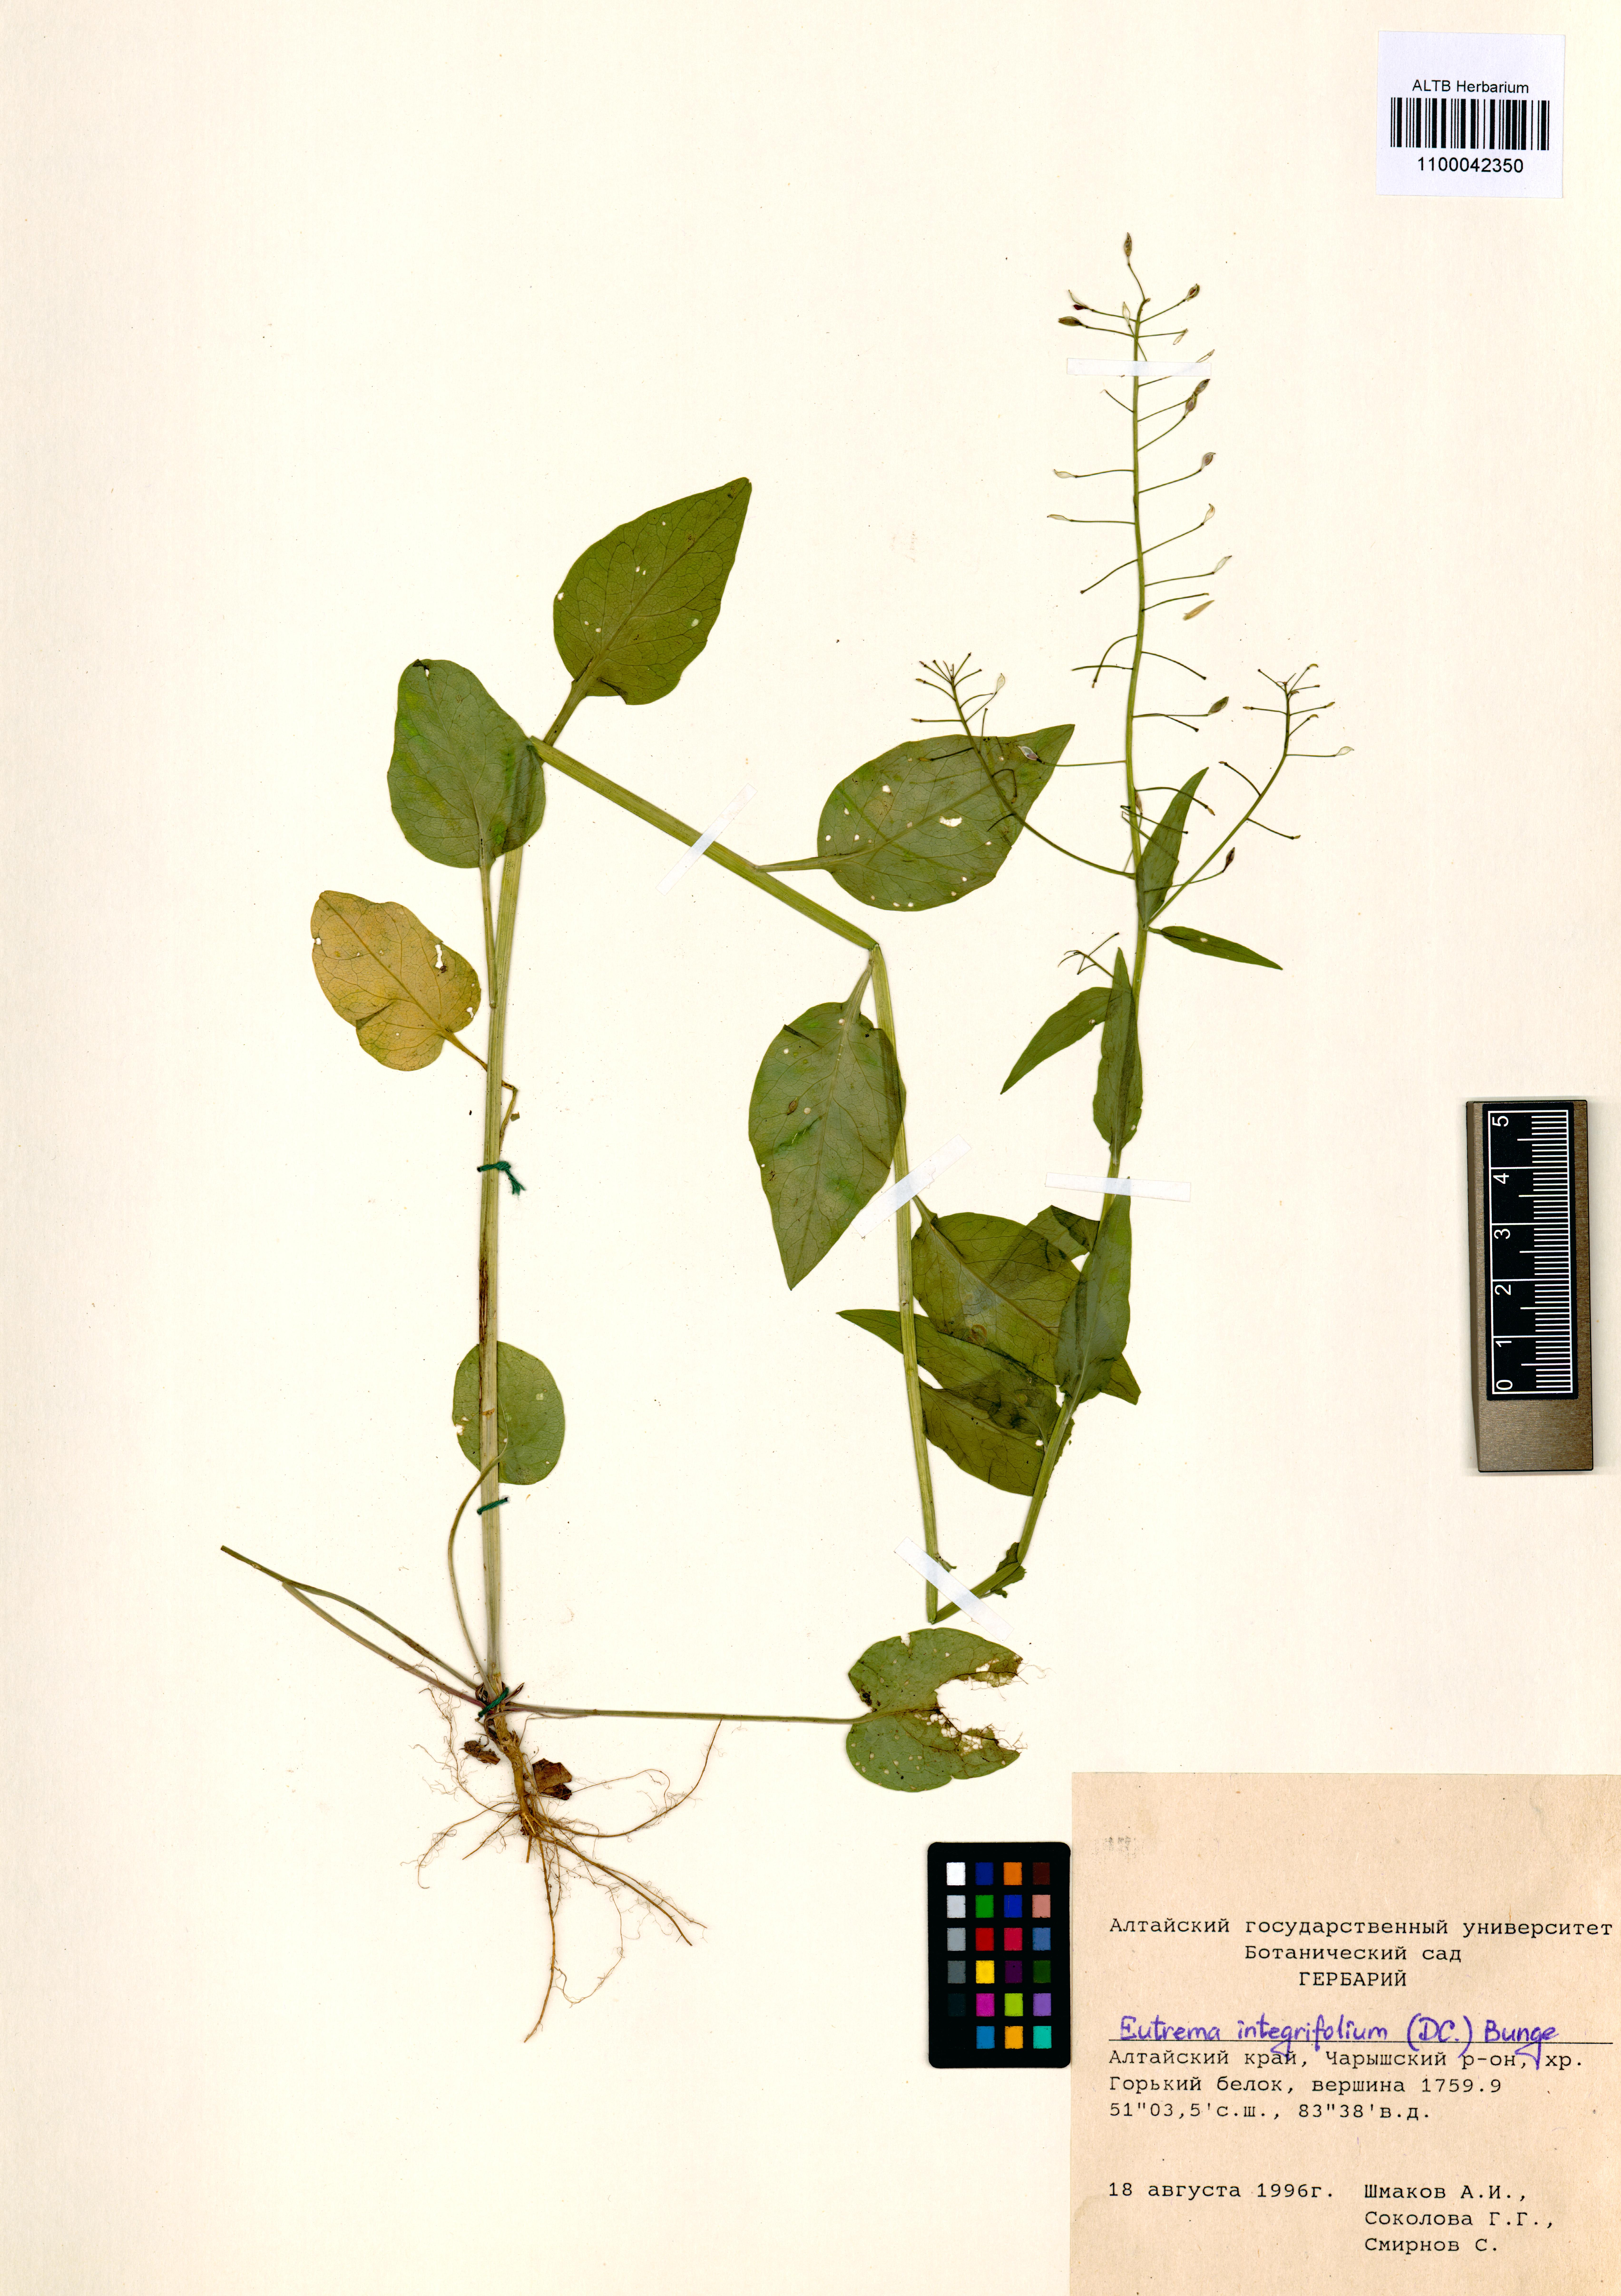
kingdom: Plantae
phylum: Tracheophyta
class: Magnoliopsida
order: Brassicales
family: Brassicaceae
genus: Eutrema
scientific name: Eutrema integrifolium
